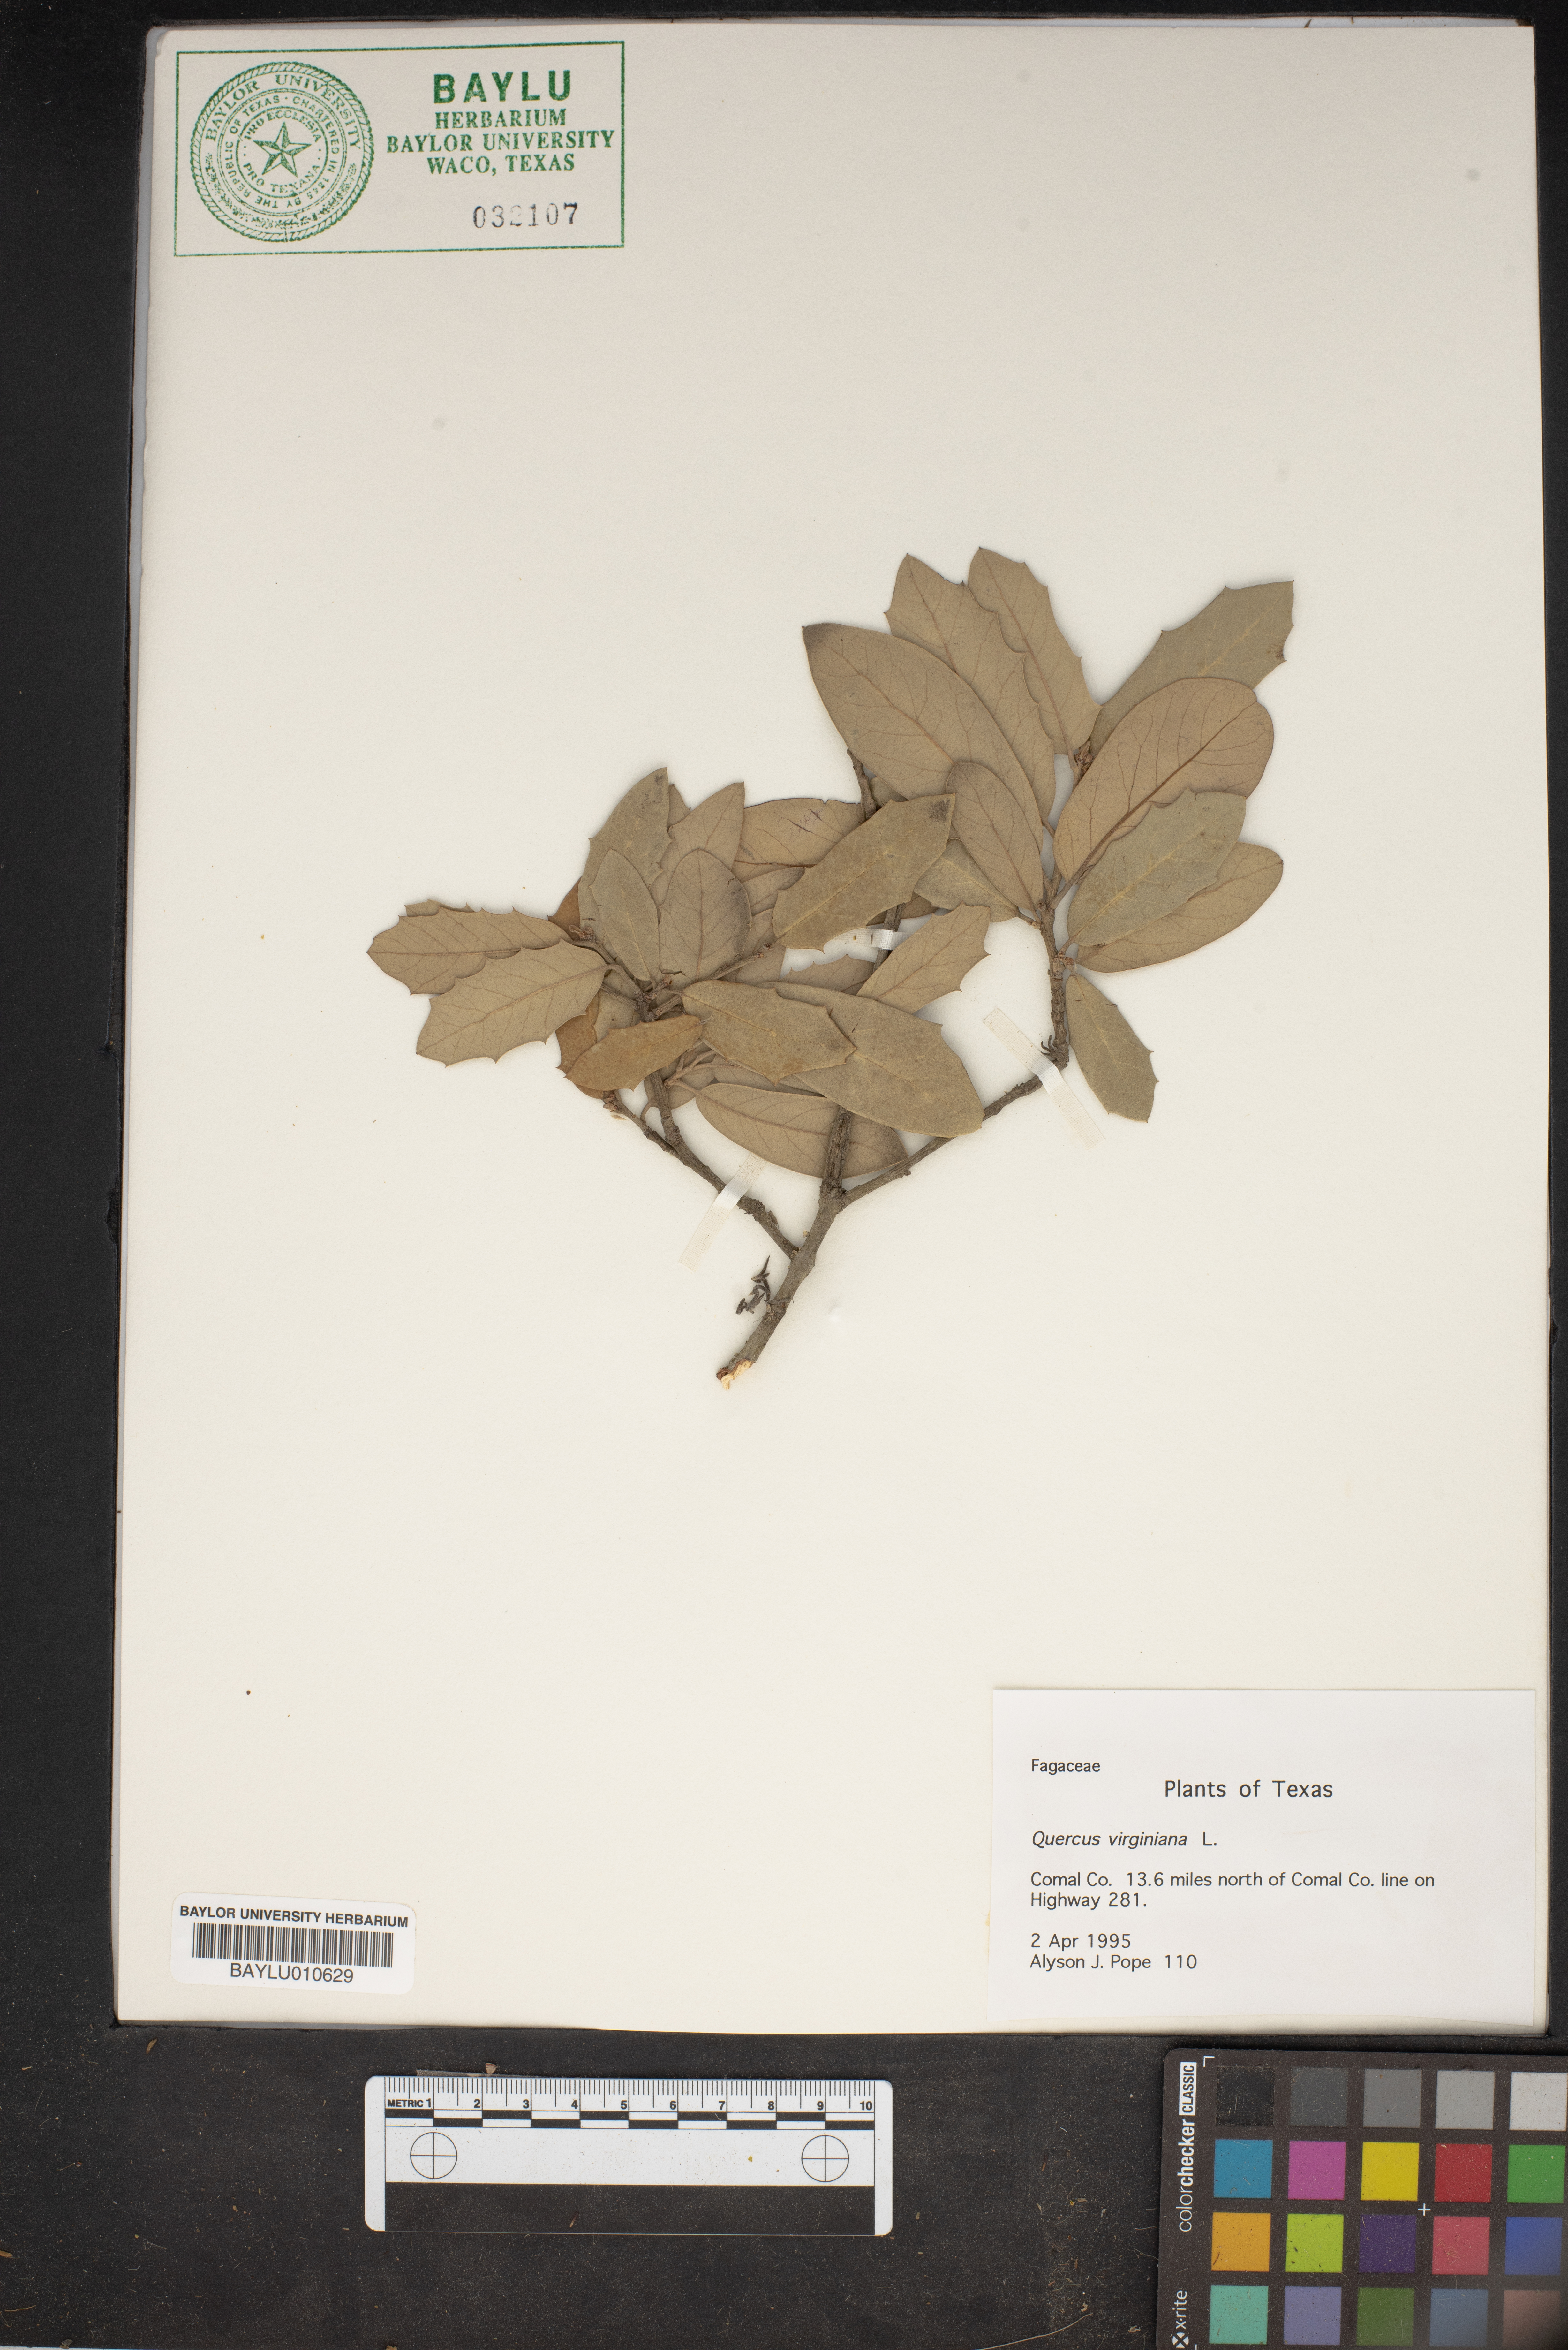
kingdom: Plantae
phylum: Tracheophyta
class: Magnoliopsida
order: Fagales
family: Fagaceae
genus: Quercus
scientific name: Quercus virginiana
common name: Southern live oak
